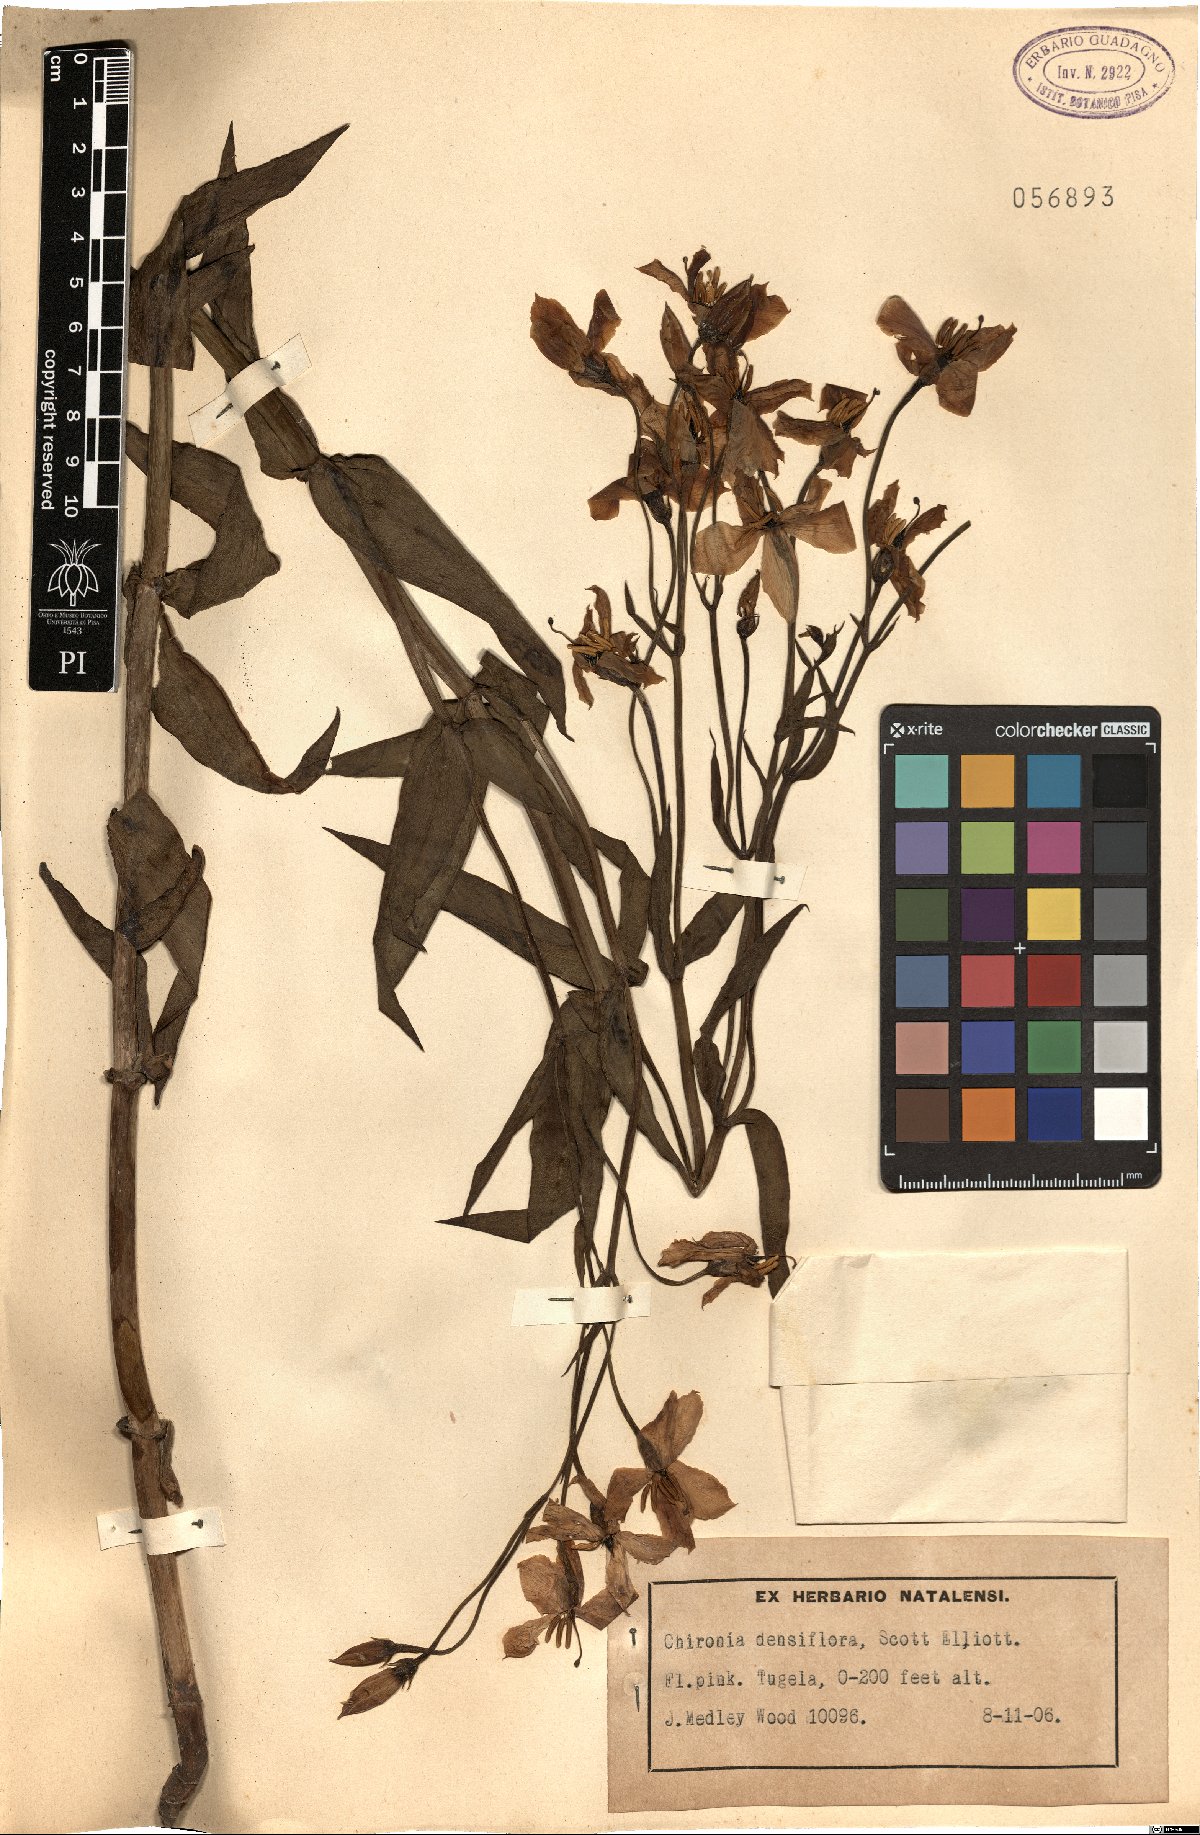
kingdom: Plantae
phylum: Tracheophyta
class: Magnoliopsida
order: Gentianales
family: Gentianaceae
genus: Chironia
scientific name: Chironia krebsii
